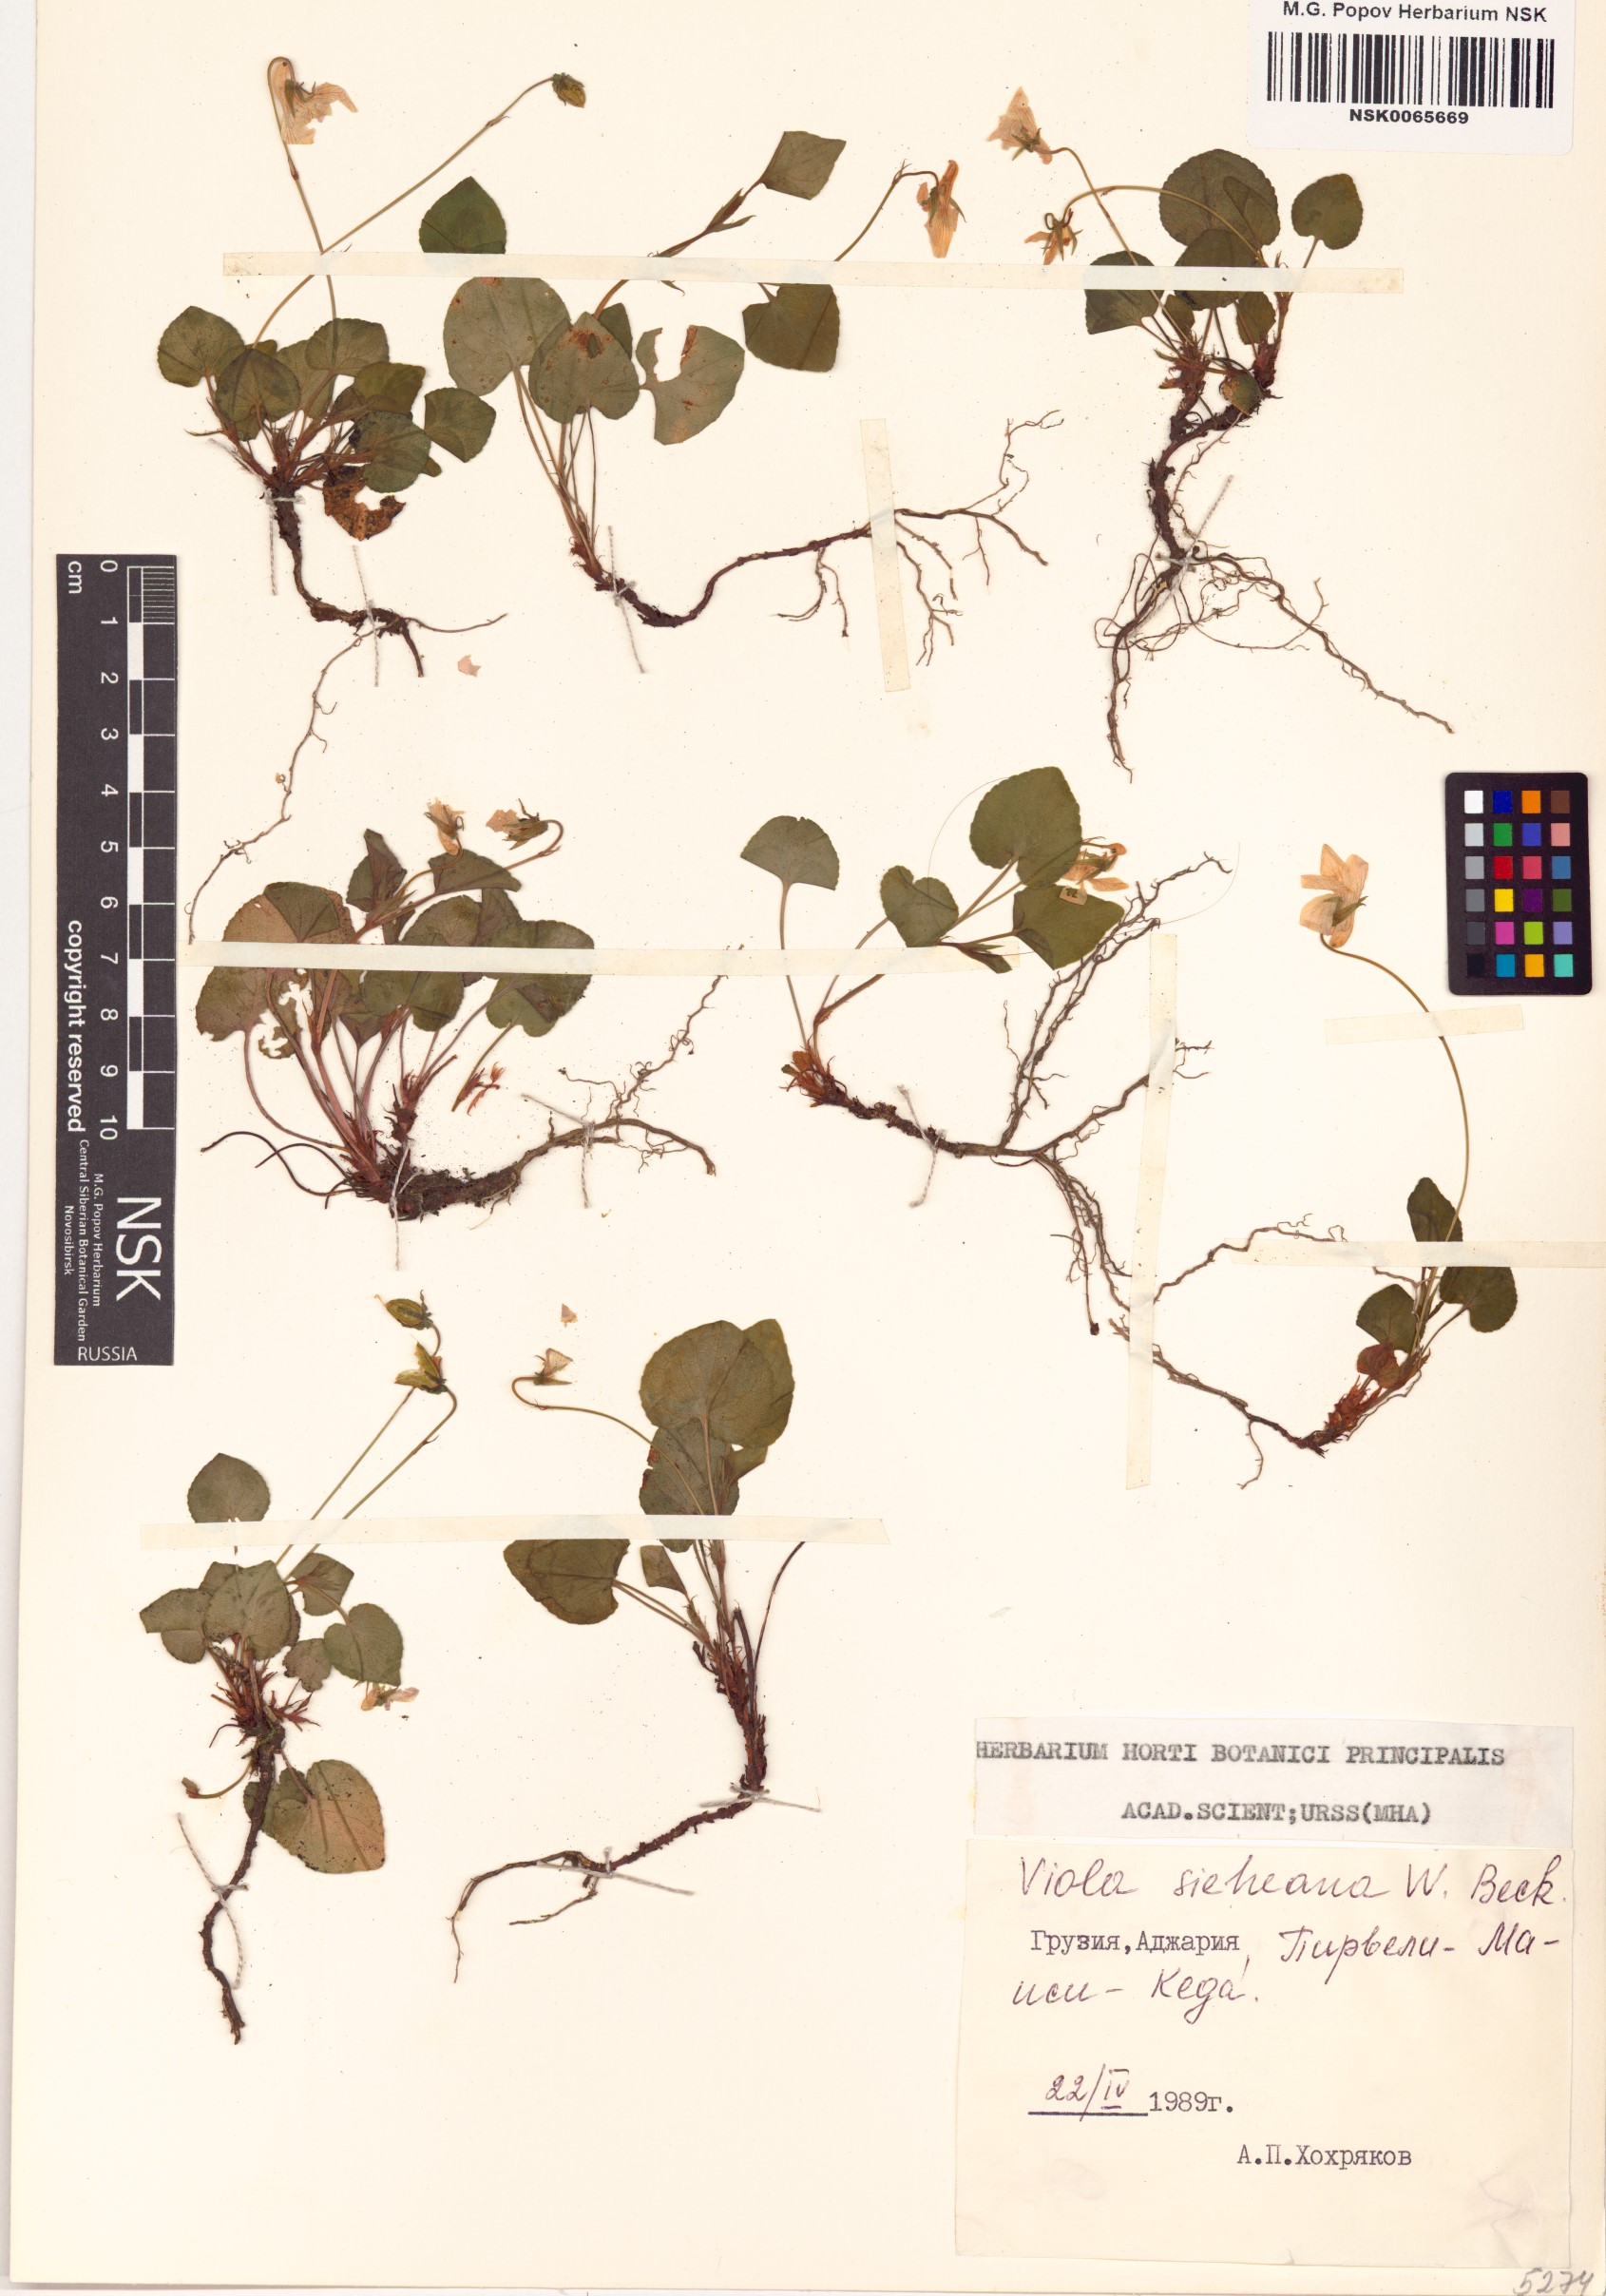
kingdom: Plantae
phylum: Tracheophyta
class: Magnoliopsida
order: Malpighiales
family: Violaceae
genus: Viola
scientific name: Viola sieheana
